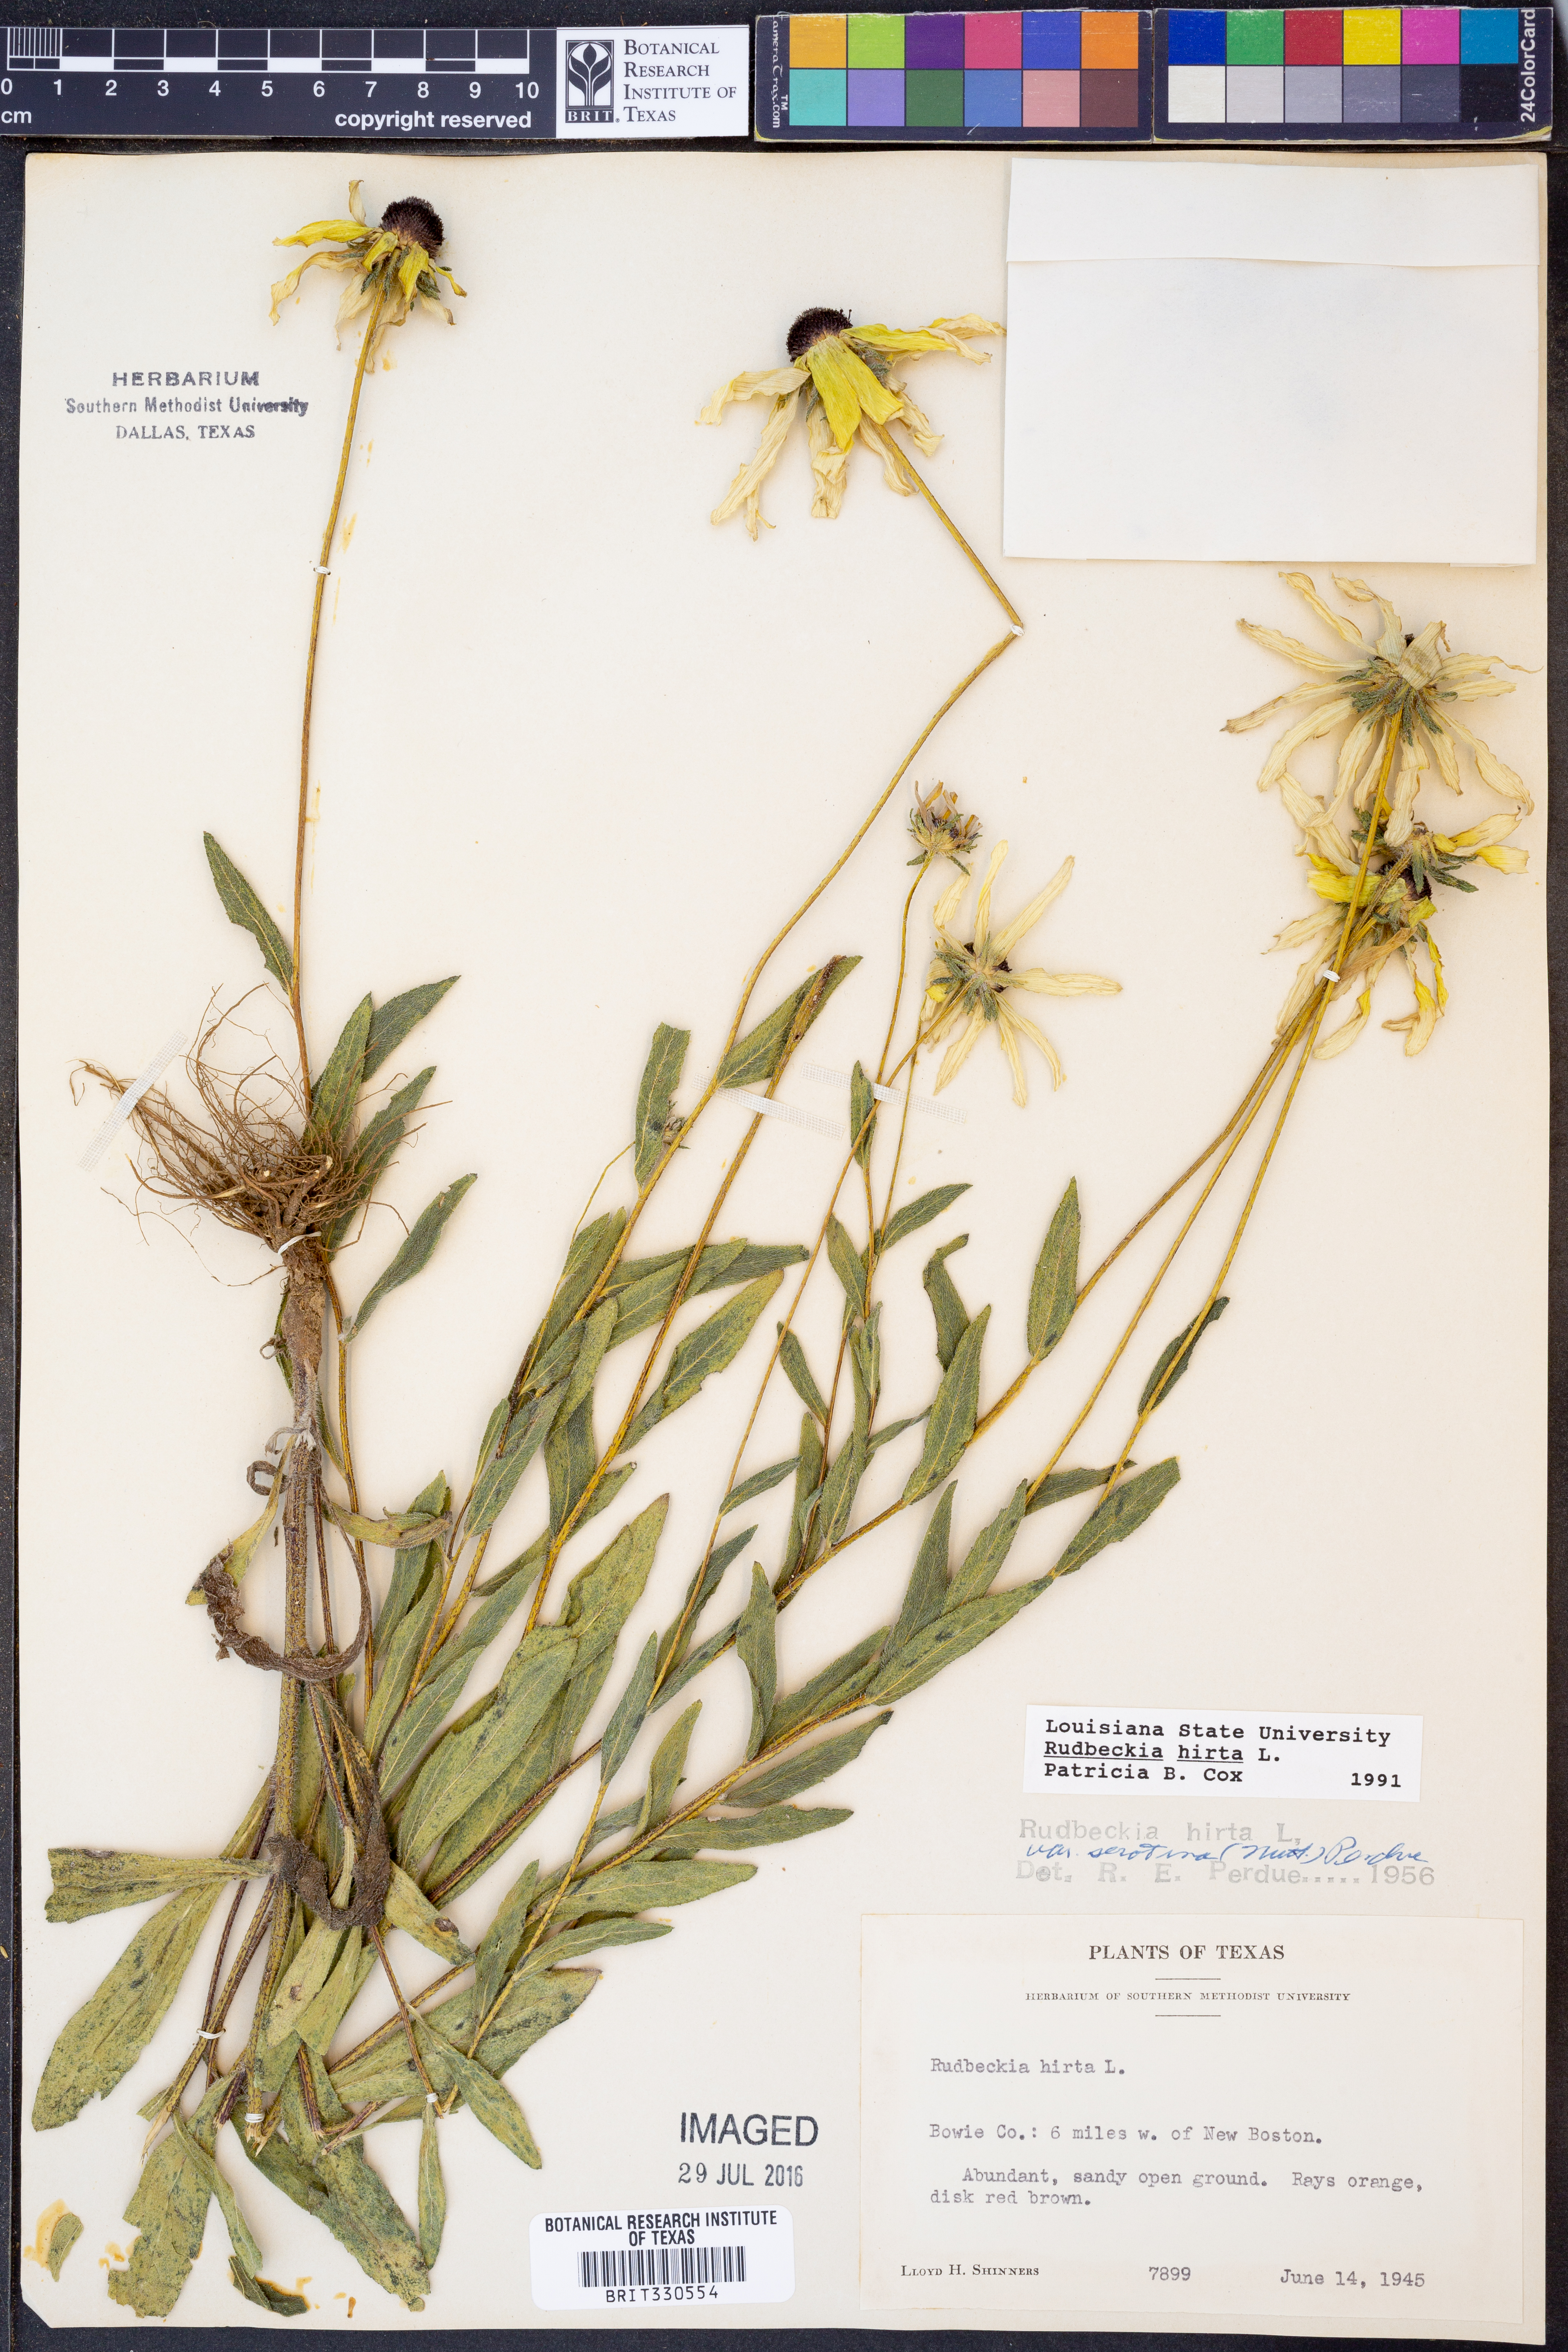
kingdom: Plantae
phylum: Tracheophyta
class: Magnoliopsida
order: Asterales
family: Asteraceae
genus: Rudbeckia
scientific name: Rudbeckia hirta
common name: Black-eyed-susan
